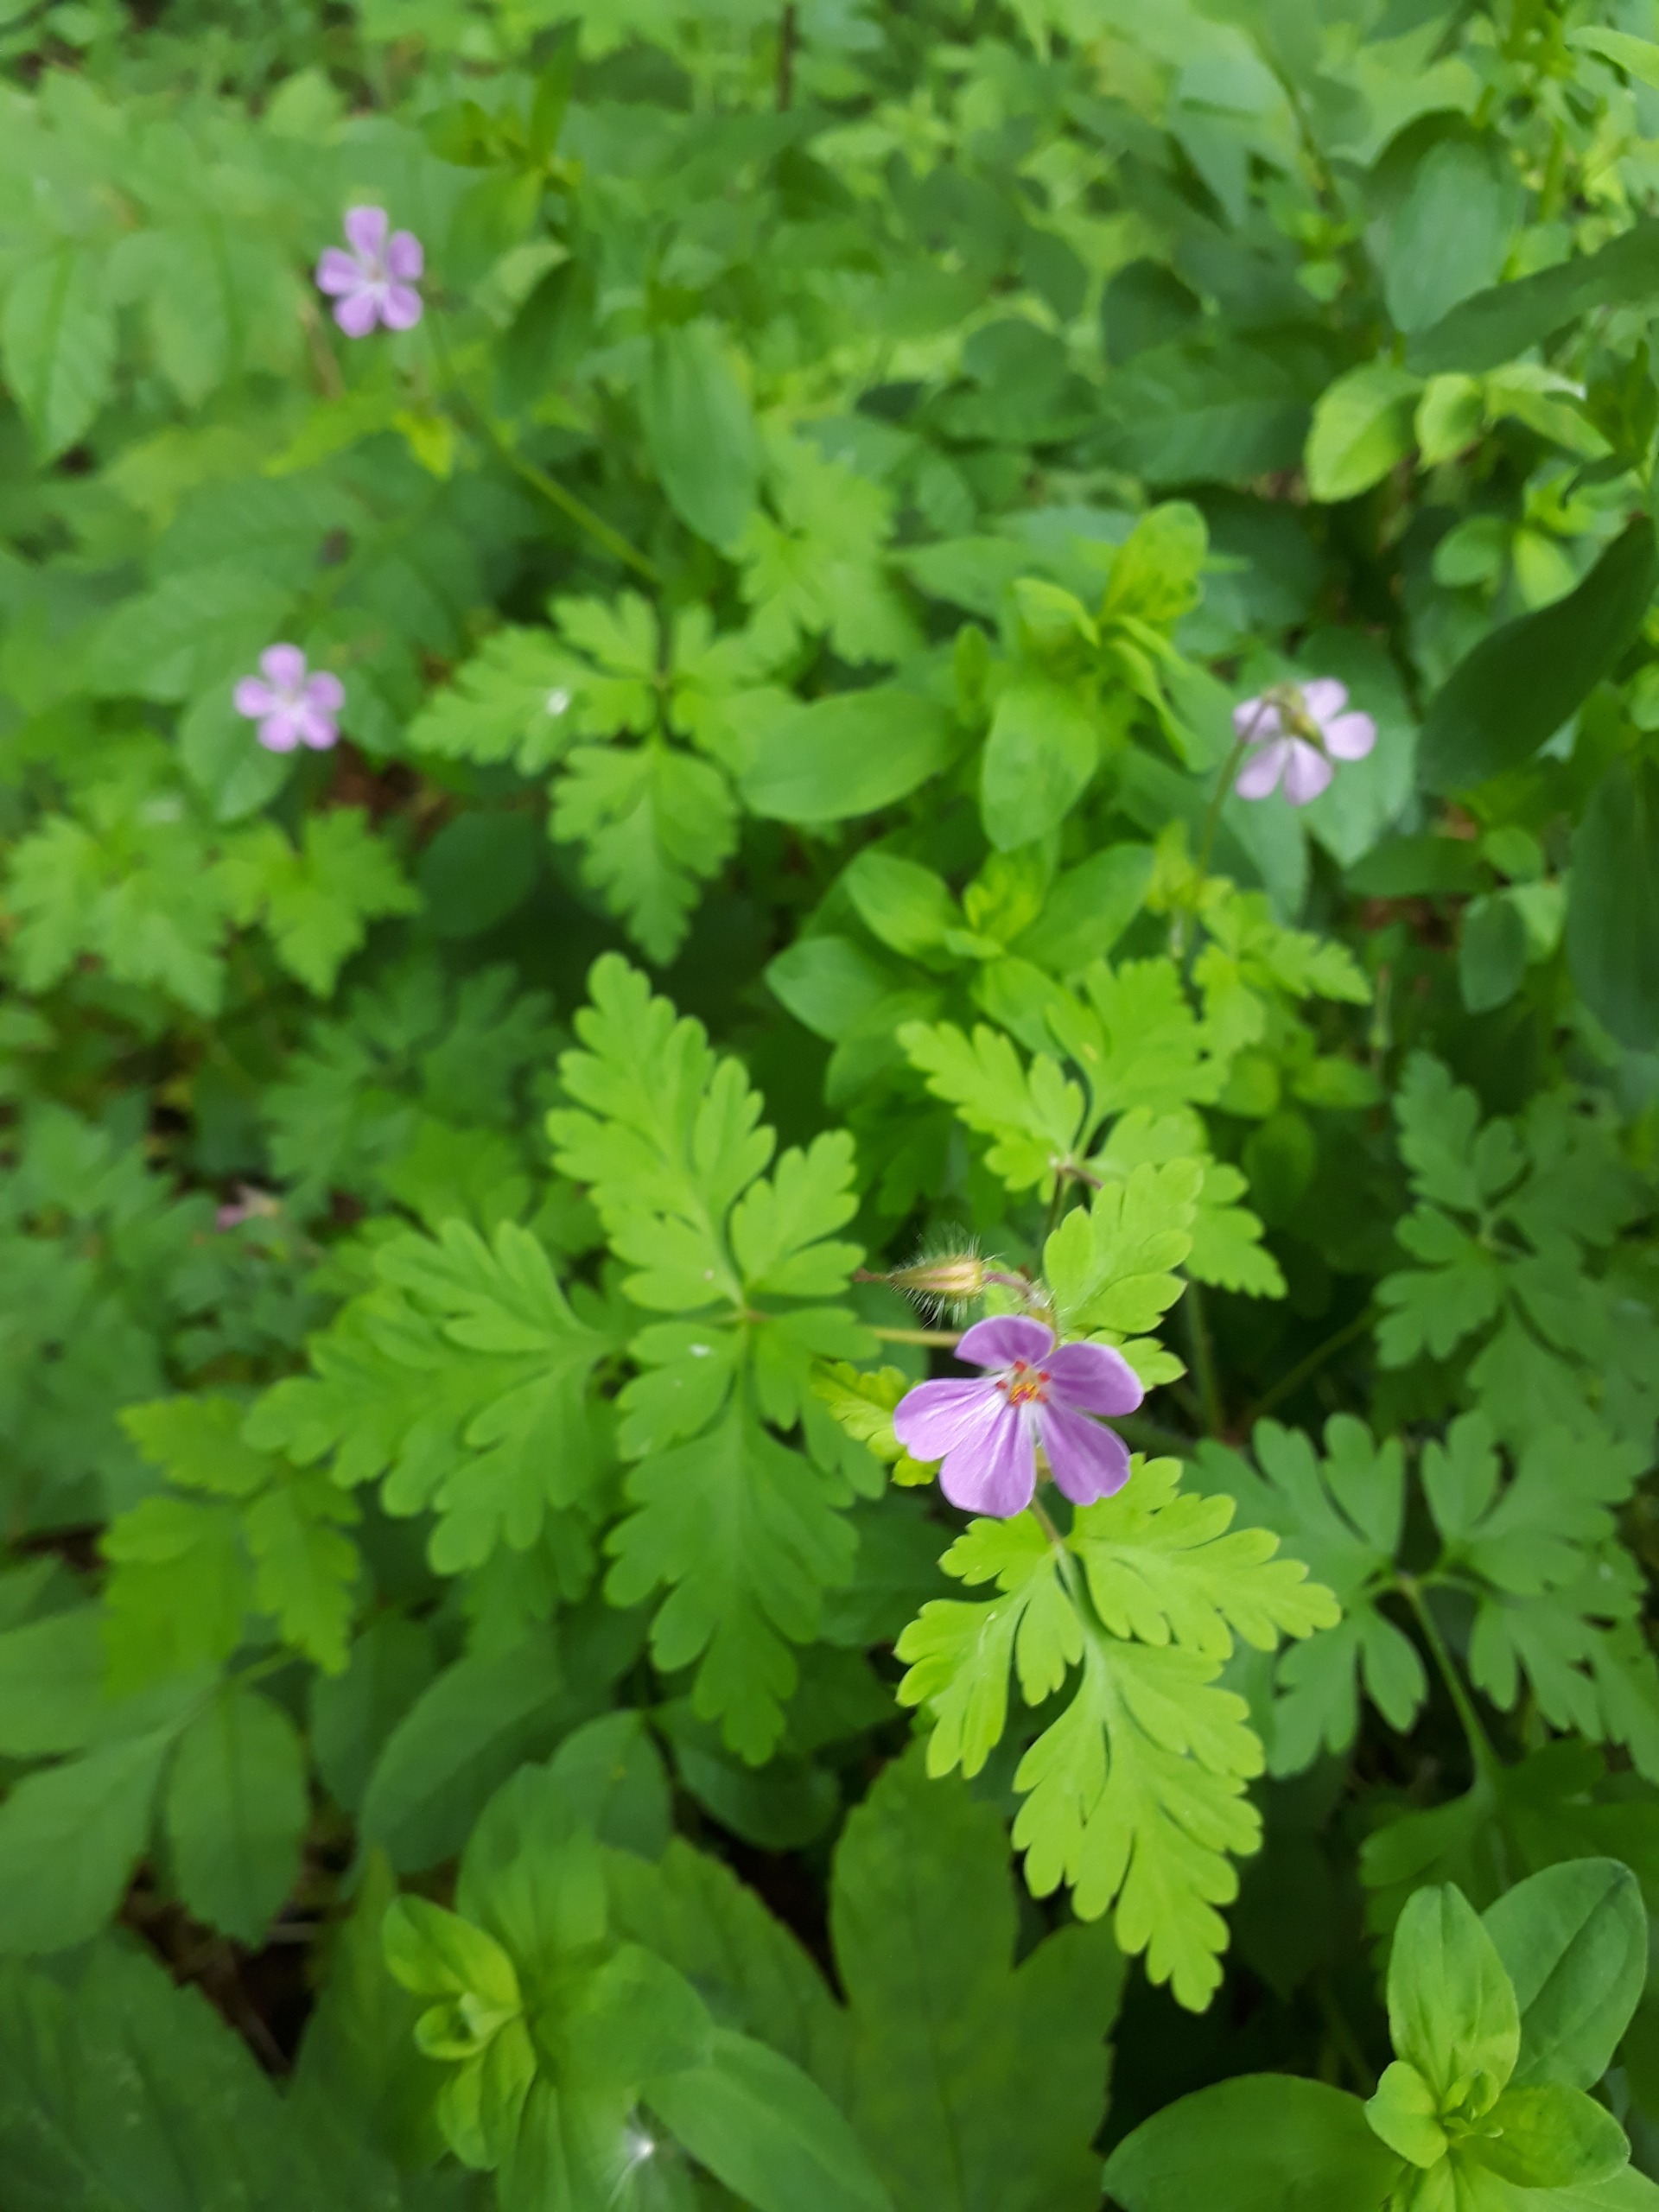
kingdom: Plantae
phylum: Tracheophyta
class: Magnoliopsida
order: Geraniales
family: Geraniaceae
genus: Geranium
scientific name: Geranium robertianum
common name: Stinkende storkenæb
